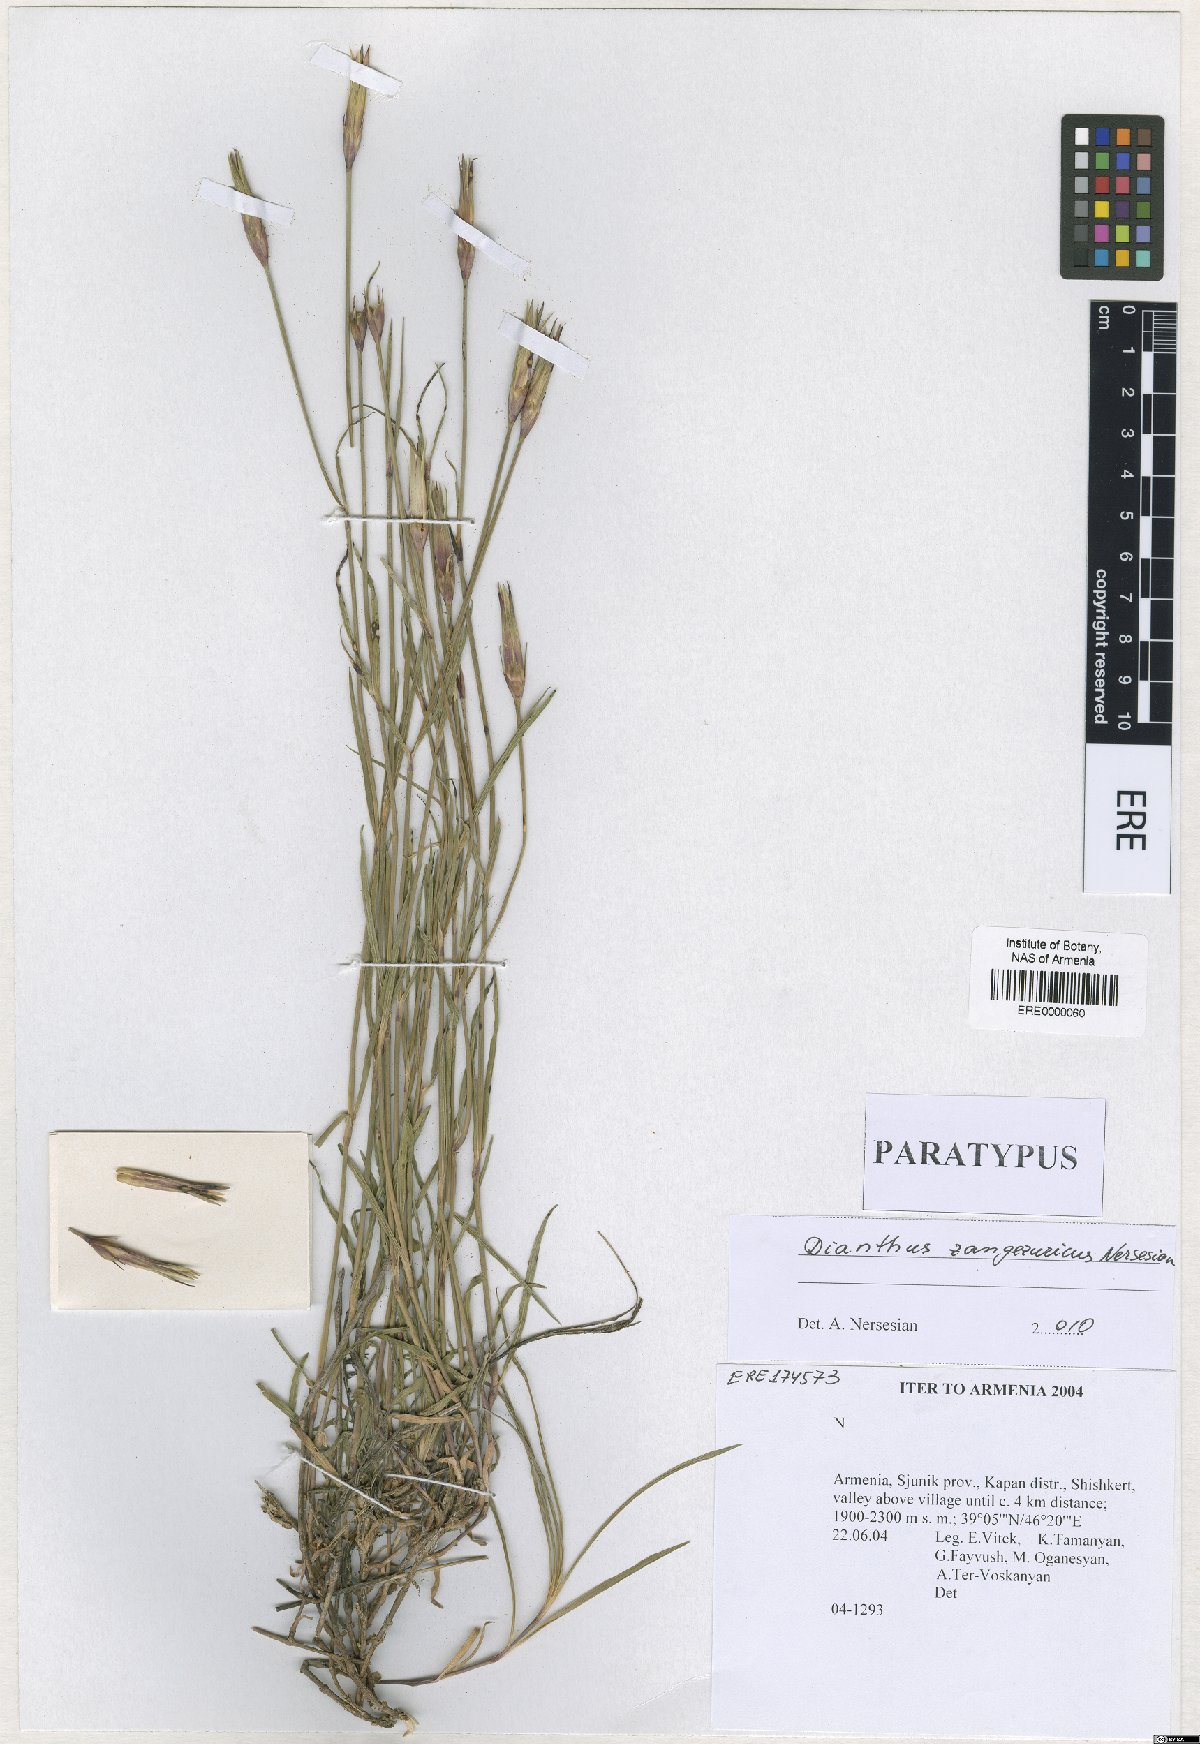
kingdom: Plantae
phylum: Tracheophyta
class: Magnoliopsida
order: Malvales
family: Malvaceae
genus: Alcea
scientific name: Alcea tabrisiana
